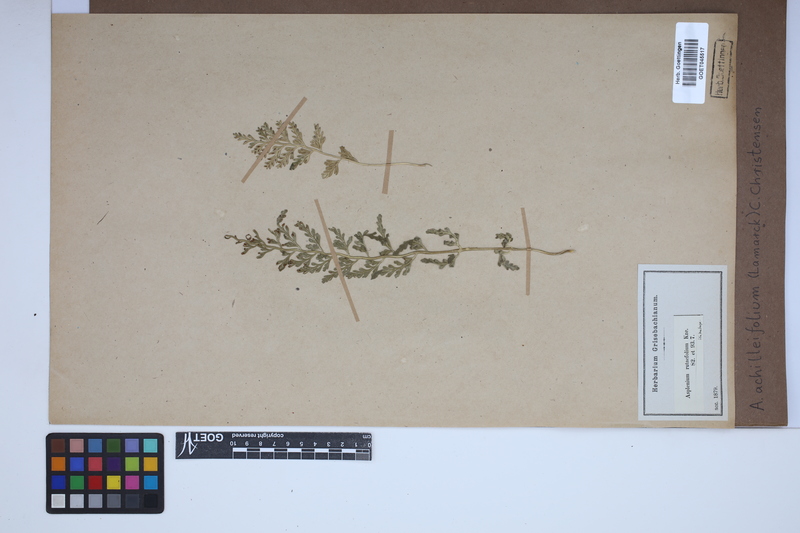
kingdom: Plantae
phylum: Tracheophyta
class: Polypodiopsida
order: Polypodiales
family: Aspleniaceae
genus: Asplenium
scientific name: Asplenium rutifolium
